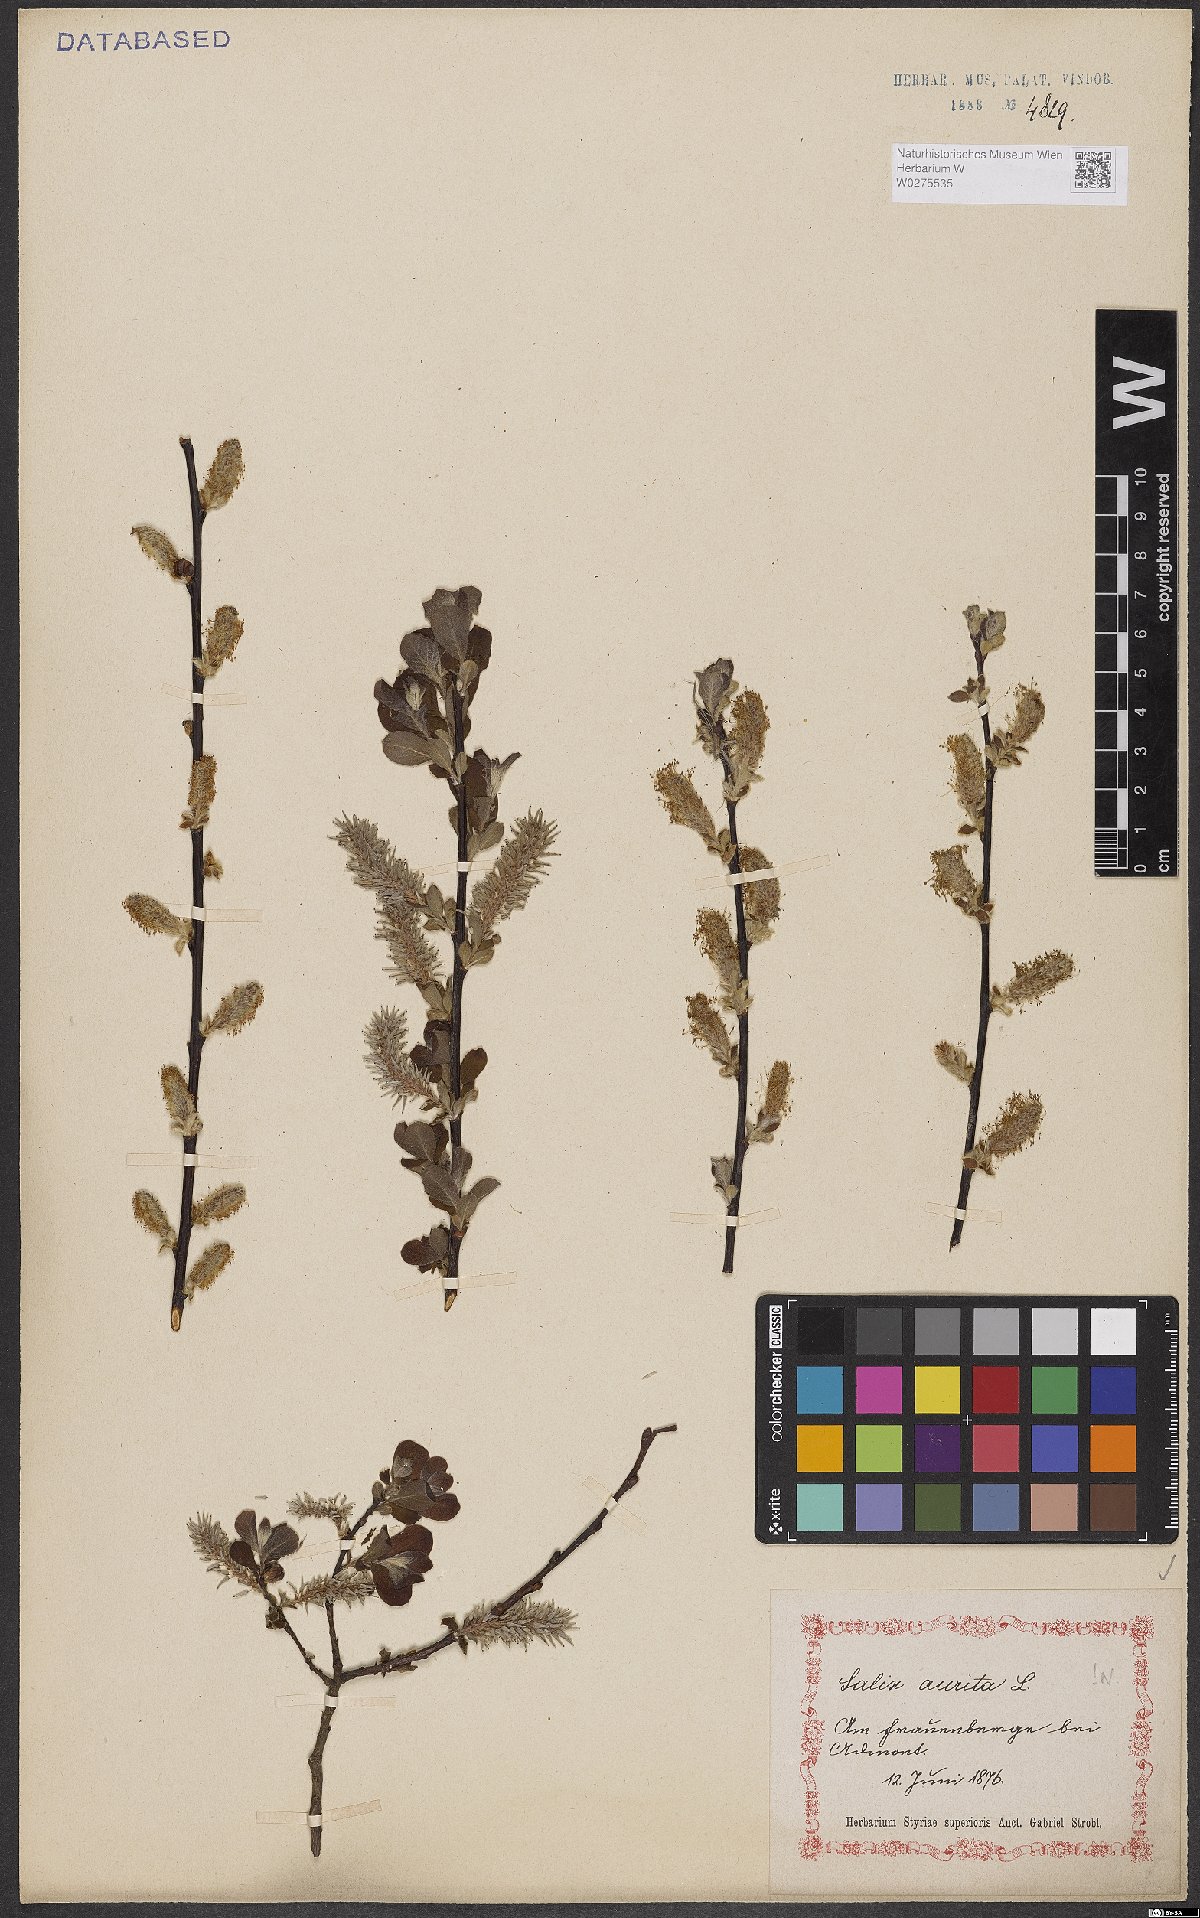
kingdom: Plantae
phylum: Tracheophyta
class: Magnoliopsida
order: Malpighiales
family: Salicaceae
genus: Salix
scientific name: Salix aurita
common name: Eared willow
